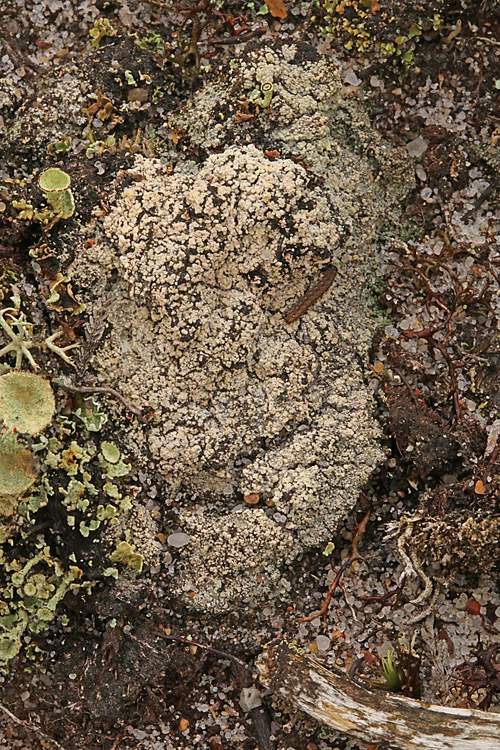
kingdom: Fungi
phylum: Ascomycota
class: Lecanoromycetes
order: Baeomycetales
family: Trapeliaceae
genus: Trapeliopsis
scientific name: Trapeliopsis granulosa
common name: forskelligfarvet skivelav
